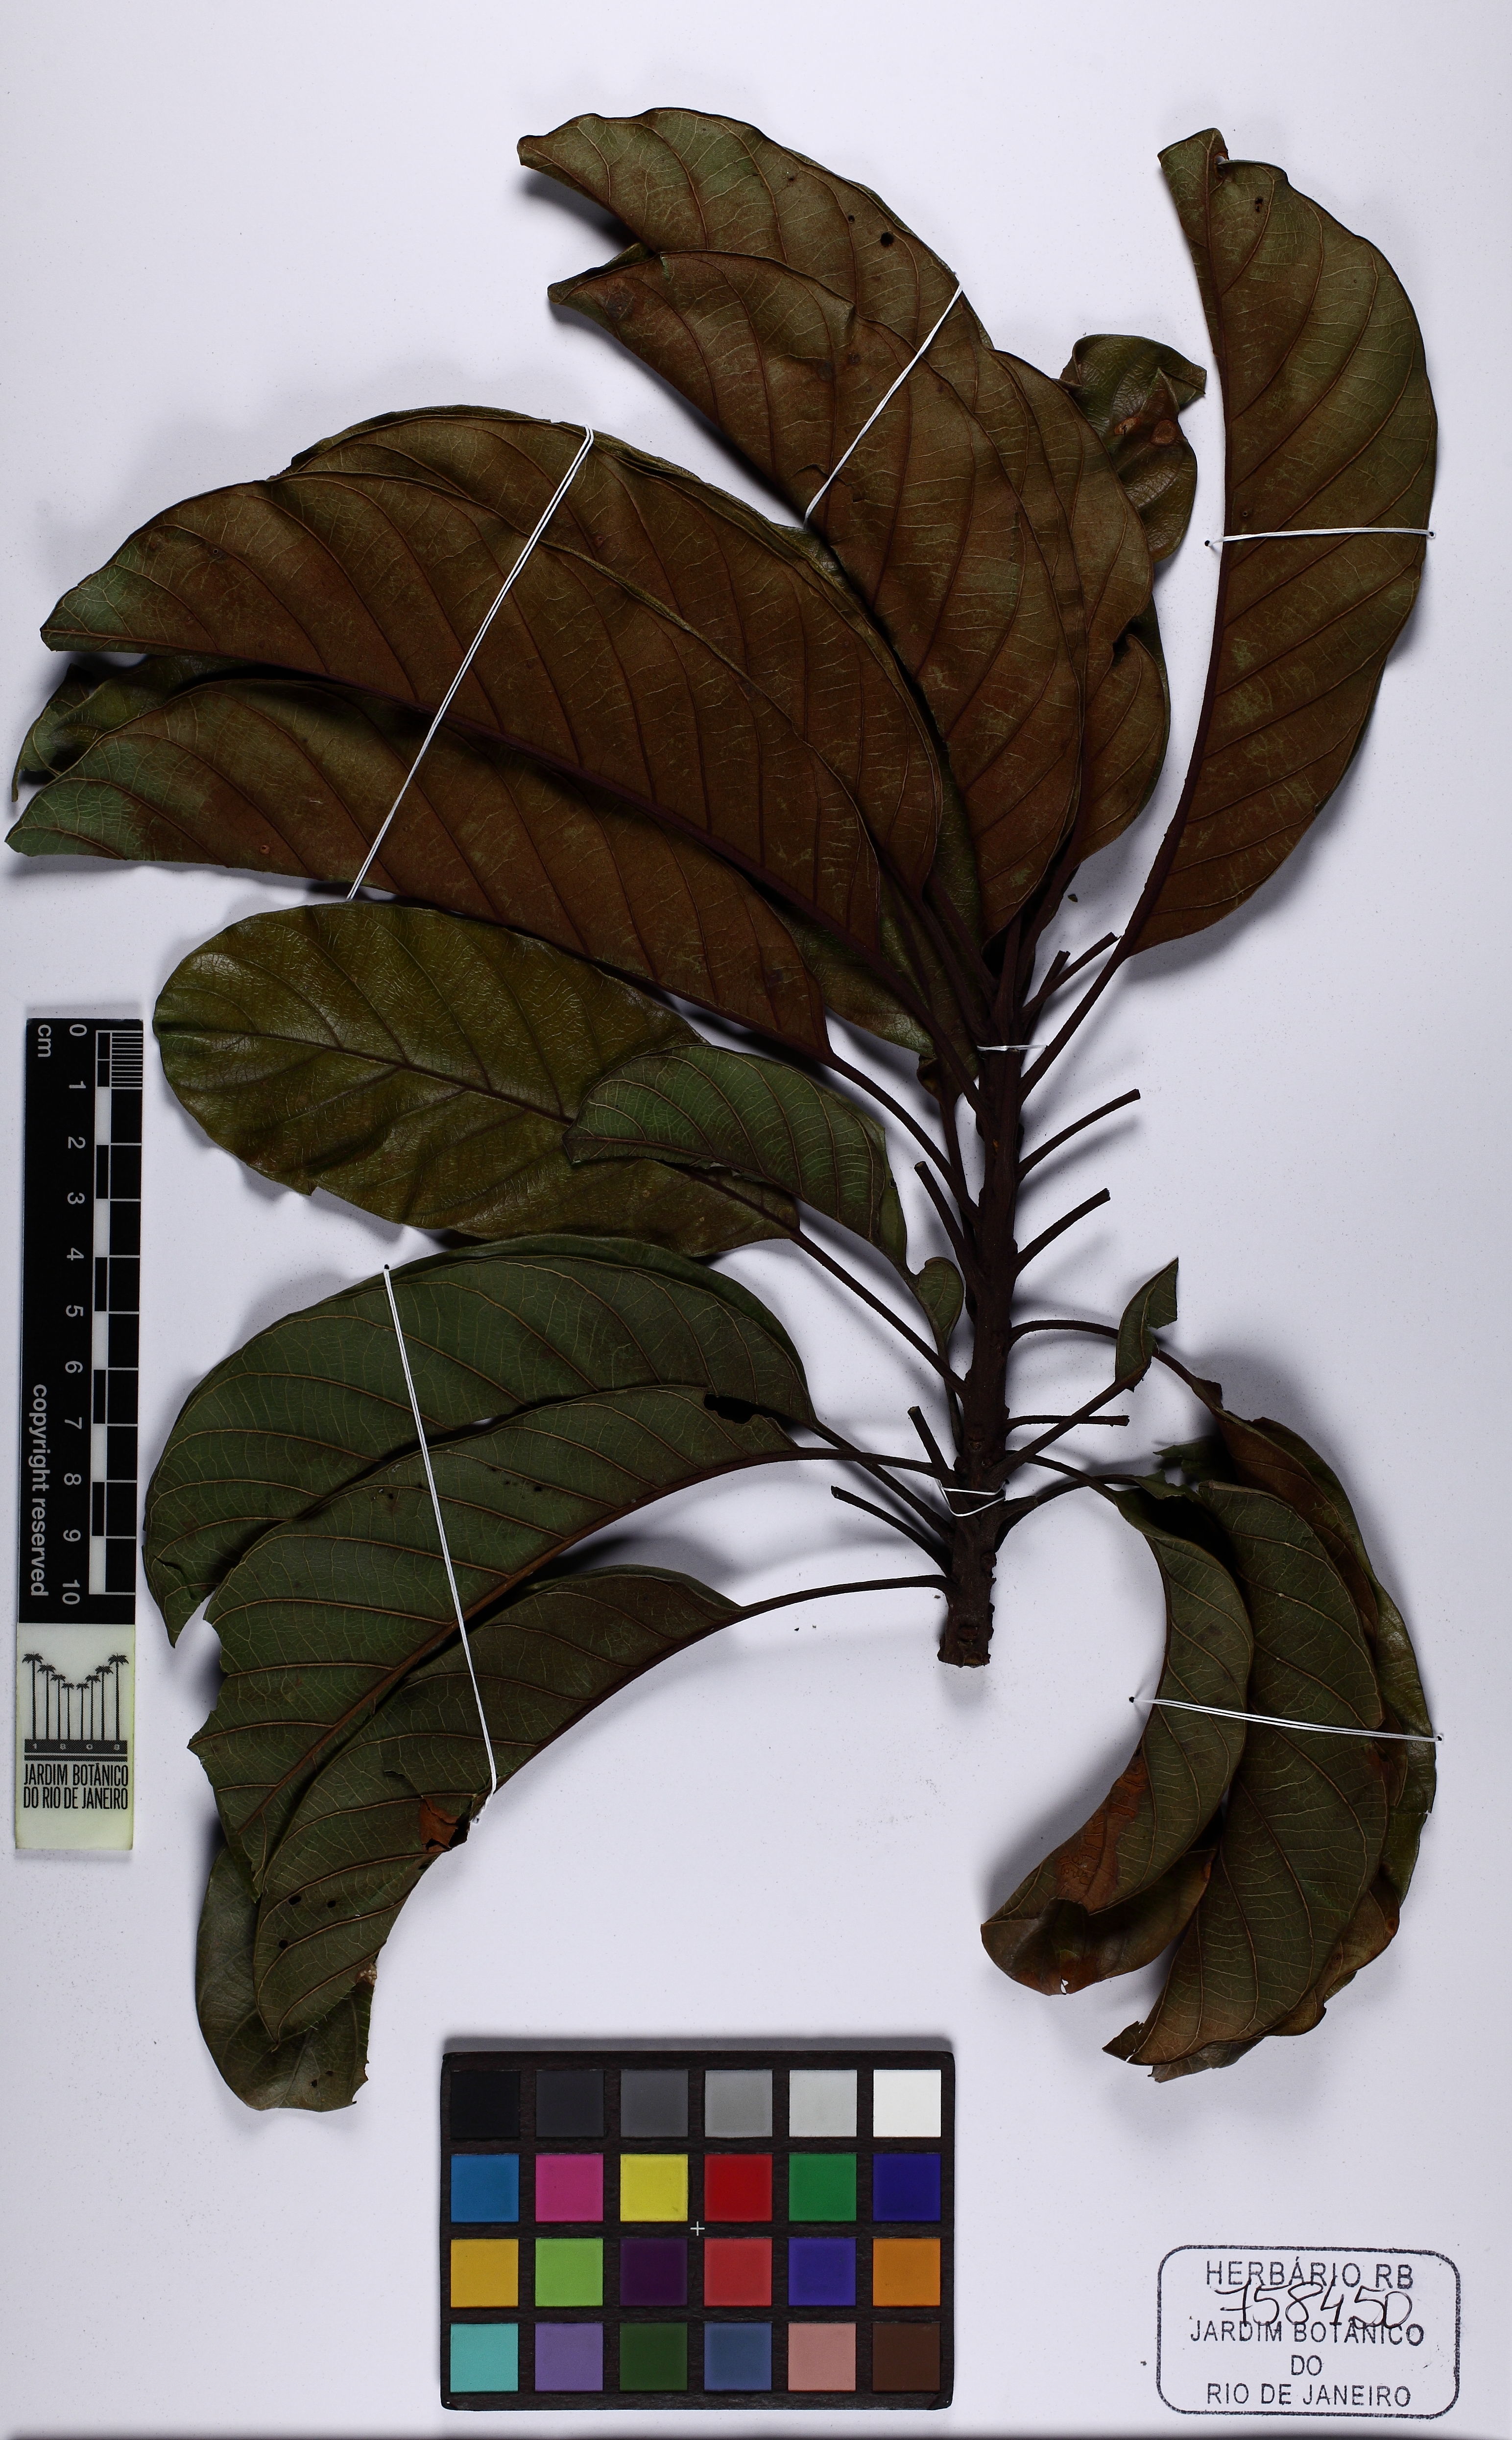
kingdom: Plantae
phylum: Tracheophyta
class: Magnoliopsida
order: Ericales
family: Sapotaceae
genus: Pouteria
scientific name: Pouteria psammophila
